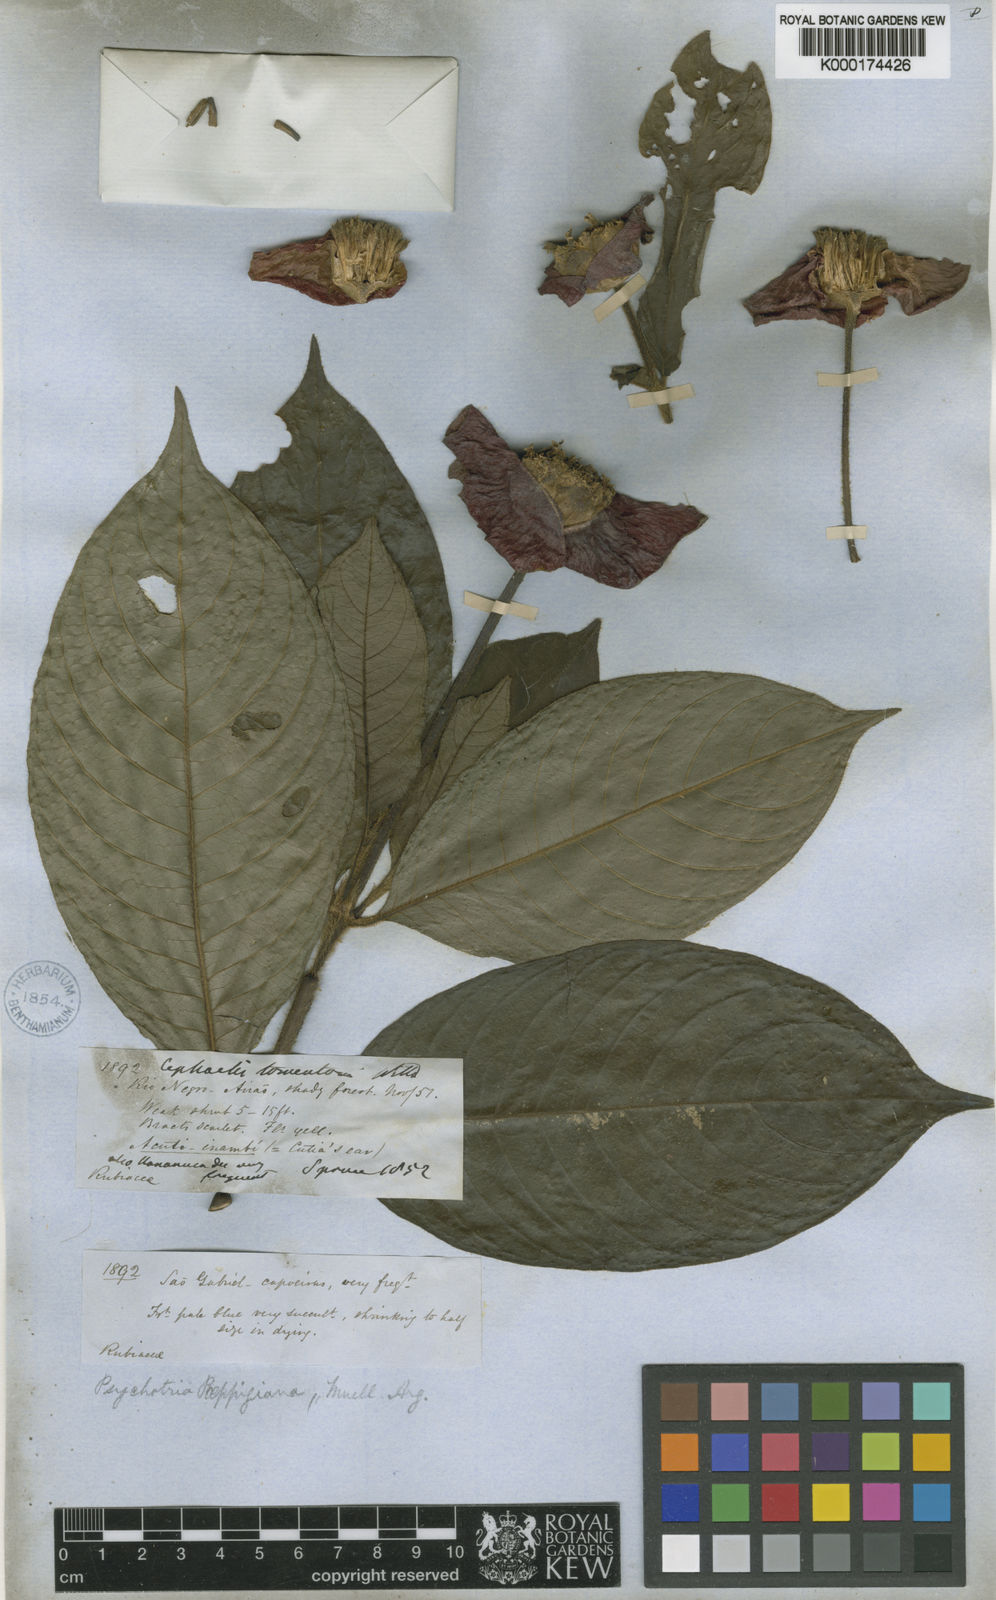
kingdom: Plantae
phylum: Tracheophyta
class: Magnoliopsida
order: Gentianales
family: Rubiaceae
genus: Psychotria
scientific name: Psychotria
